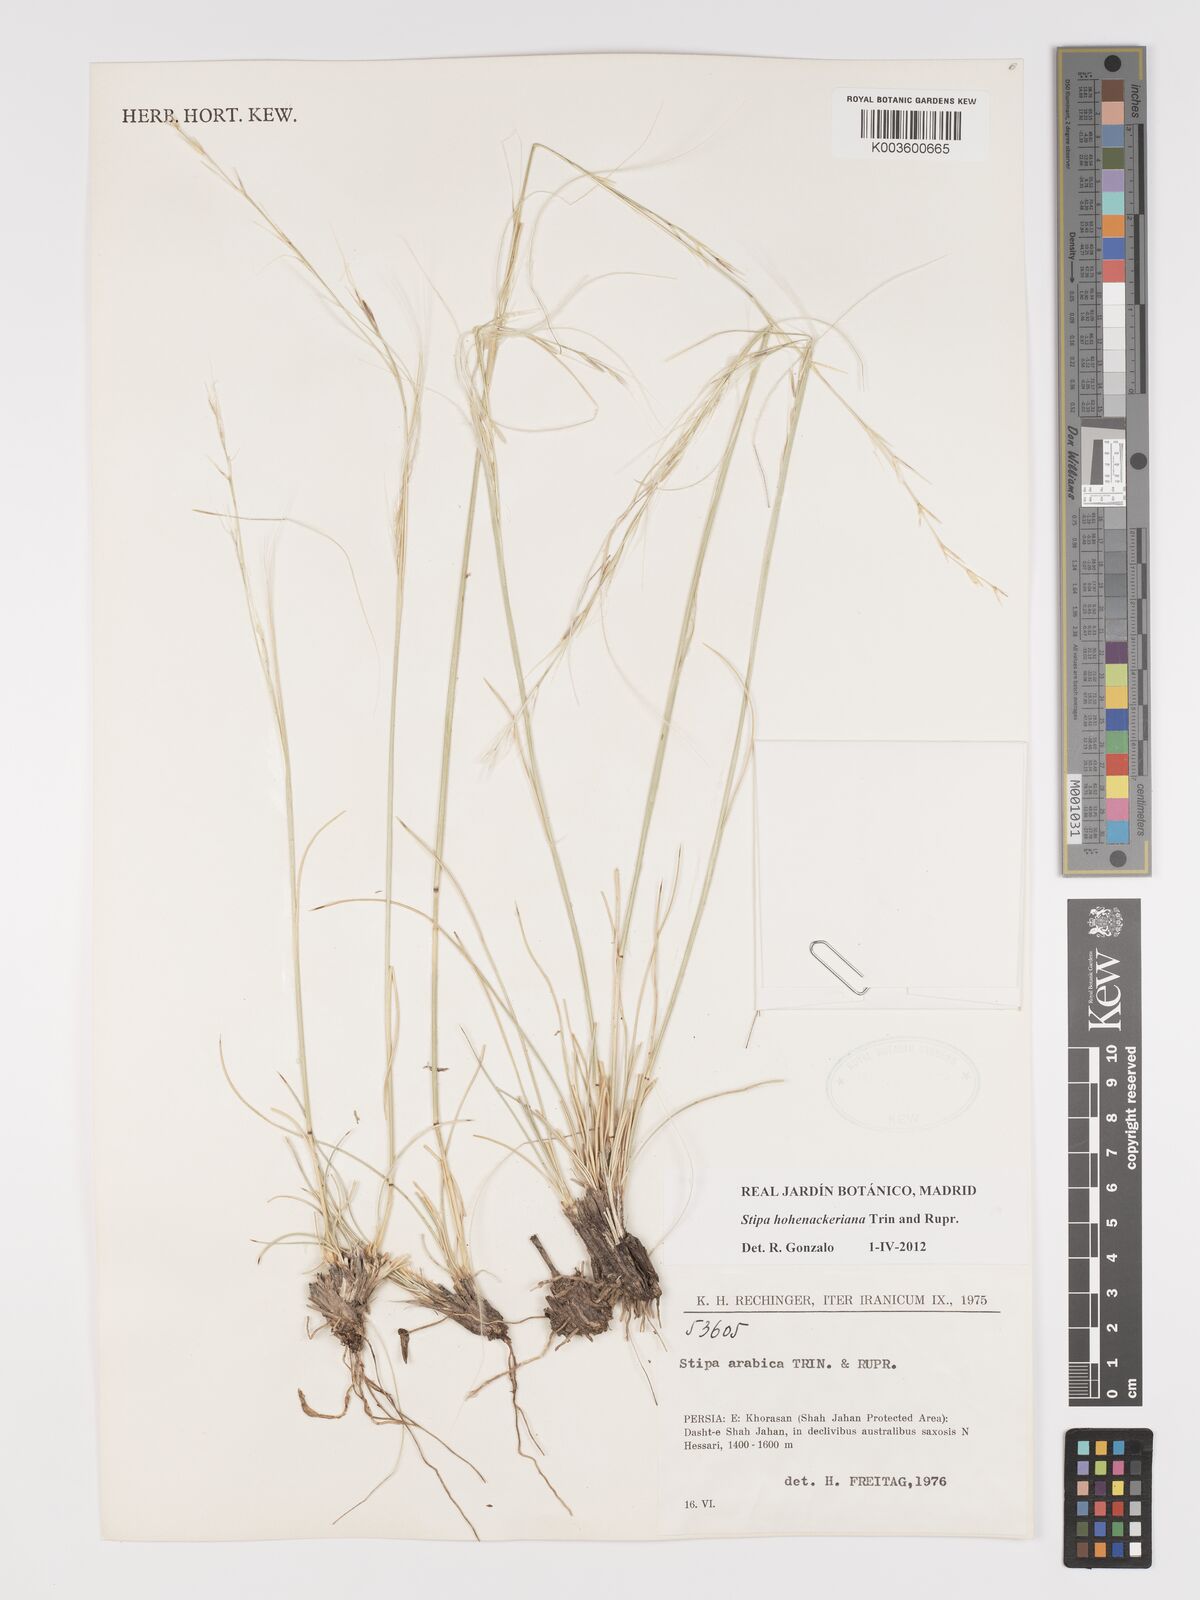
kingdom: Plantae
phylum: Tracheophyta
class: Liliopsida
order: Poales
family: Poaceae
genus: Stipa
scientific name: Stipa hohenackeriana
